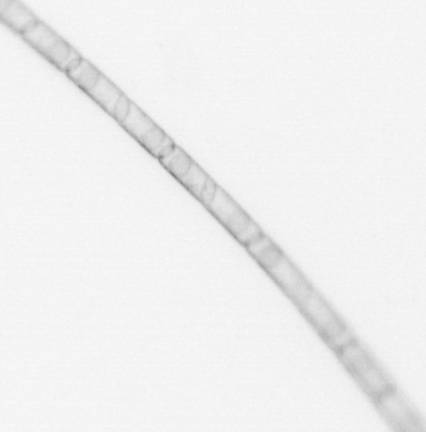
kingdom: Chromista
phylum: Ochrophyta
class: Bacillariophyceae
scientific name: Bacillariophyceae
